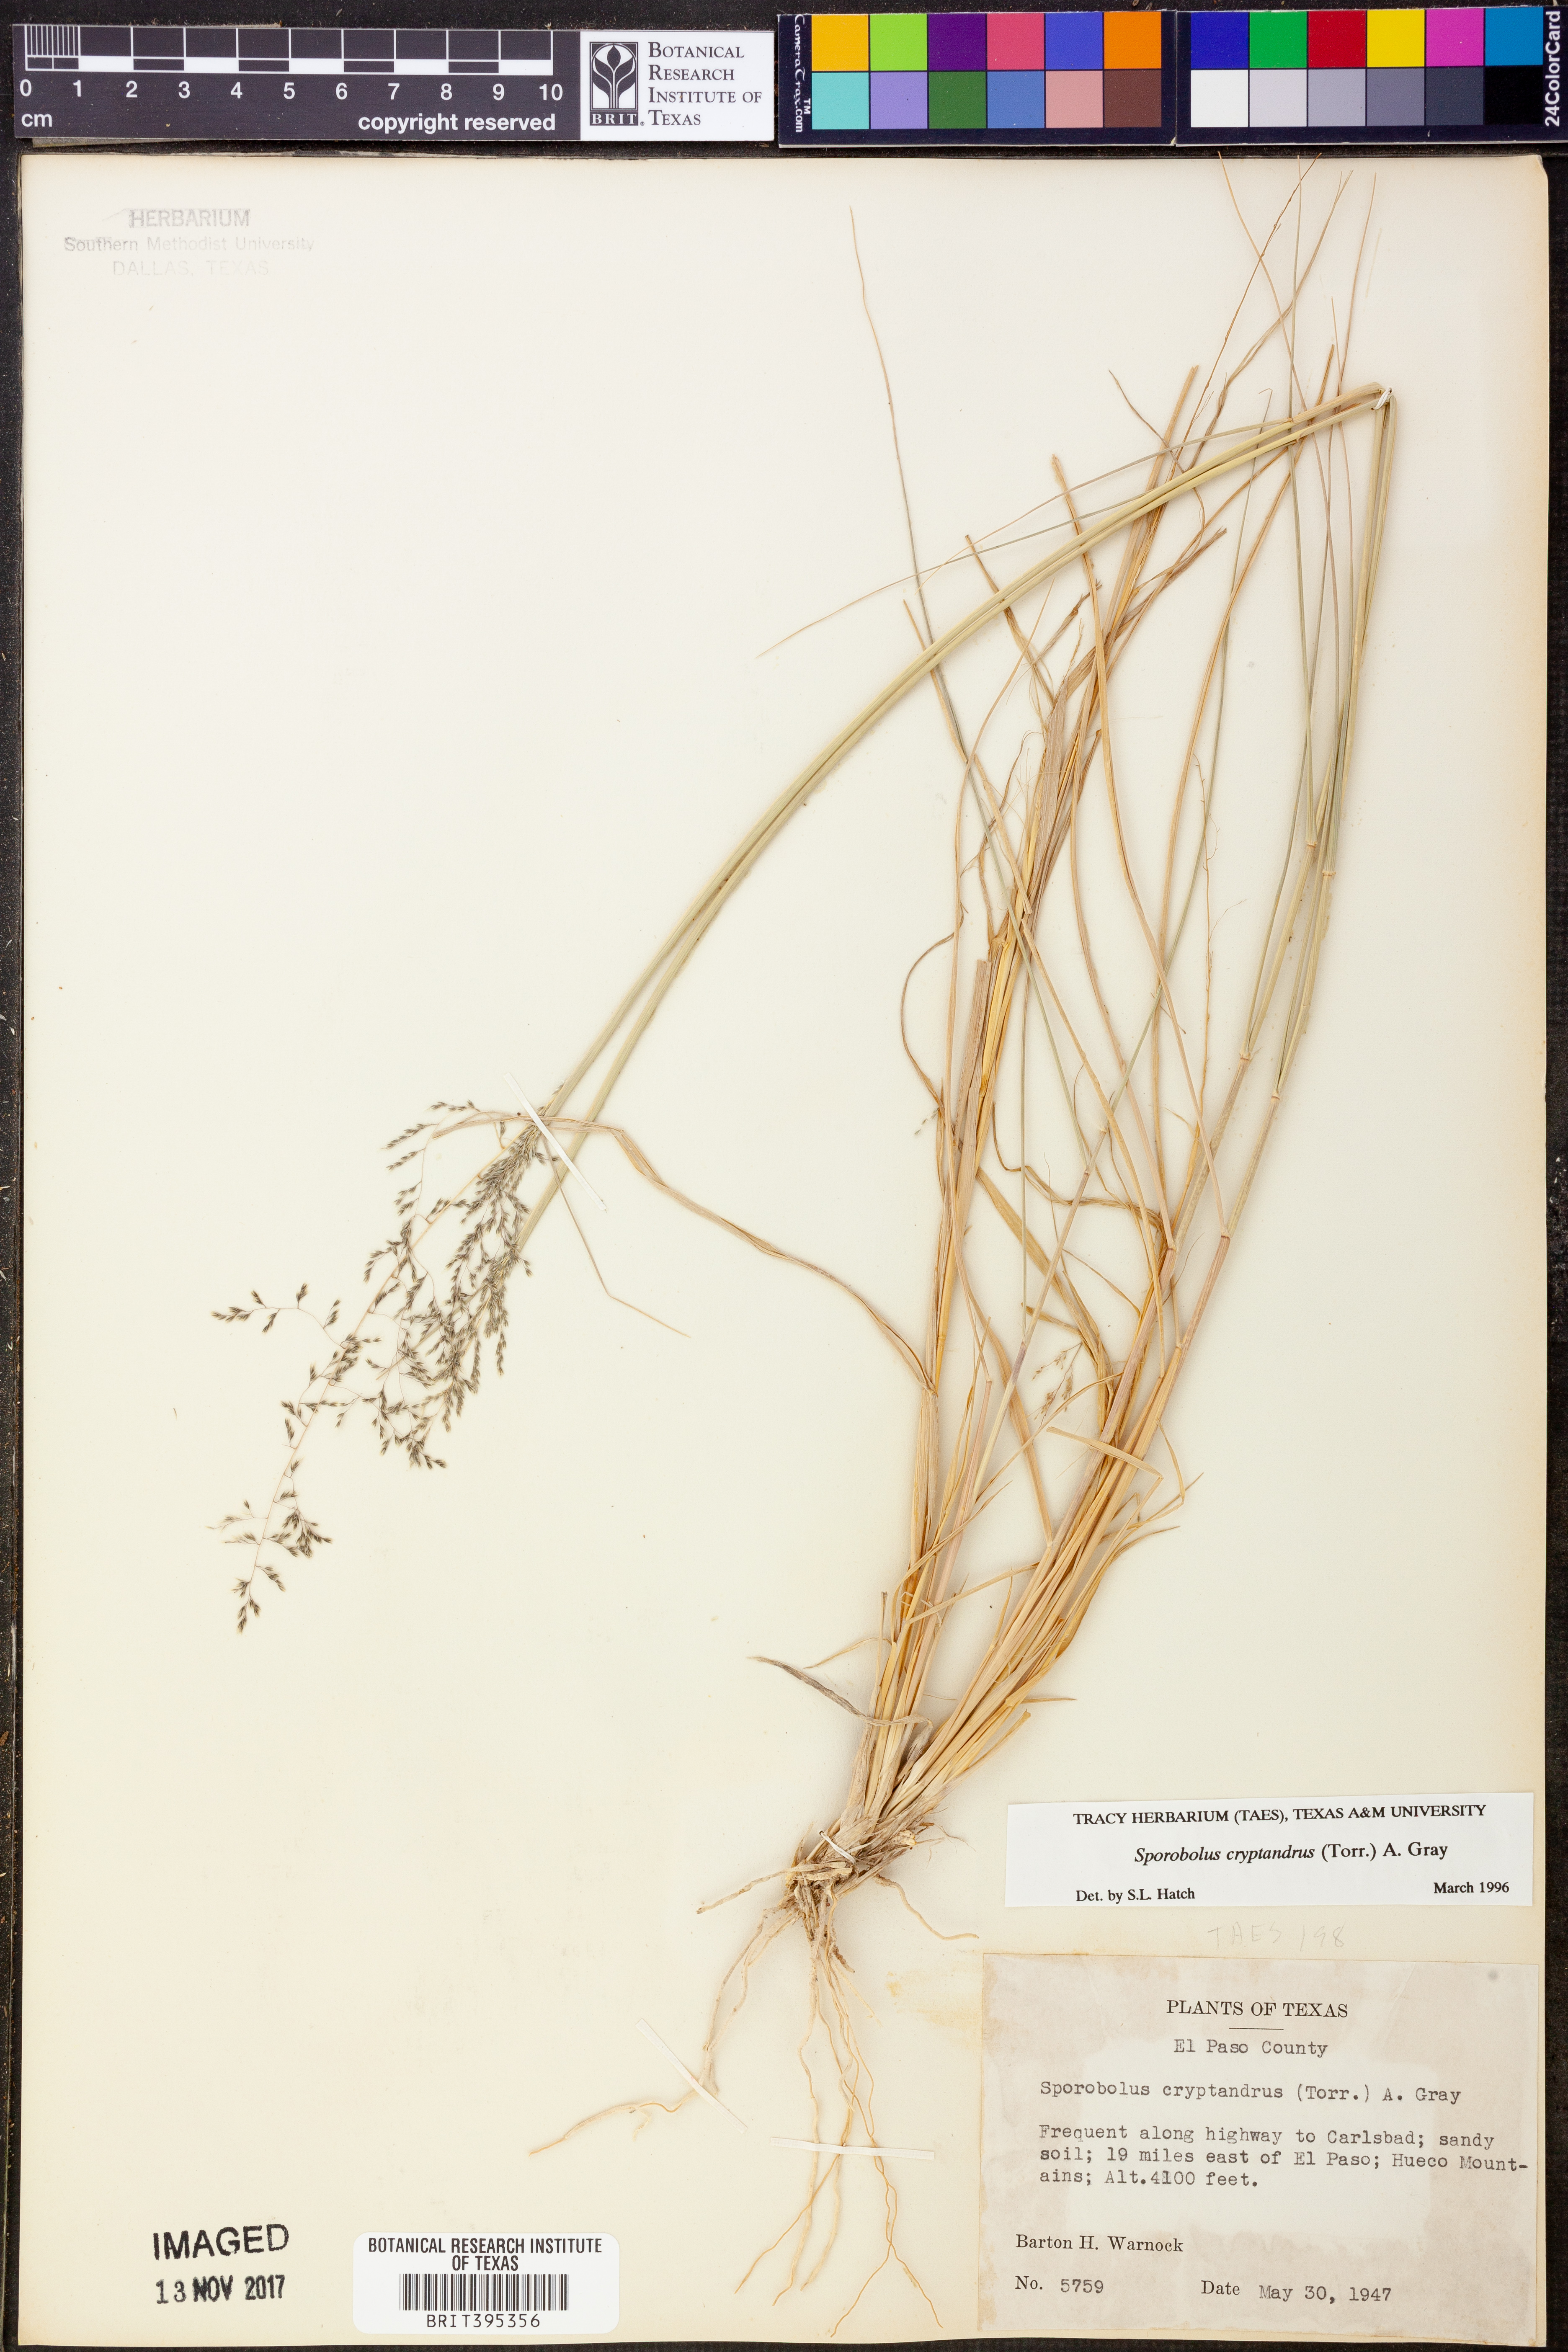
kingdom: Plantae
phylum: Tracheophyta
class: Liliopsida
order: Poales
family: Poaceae
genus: Sporobolus
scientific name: Sporobolus cryptandrus
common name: Sand dropseed
